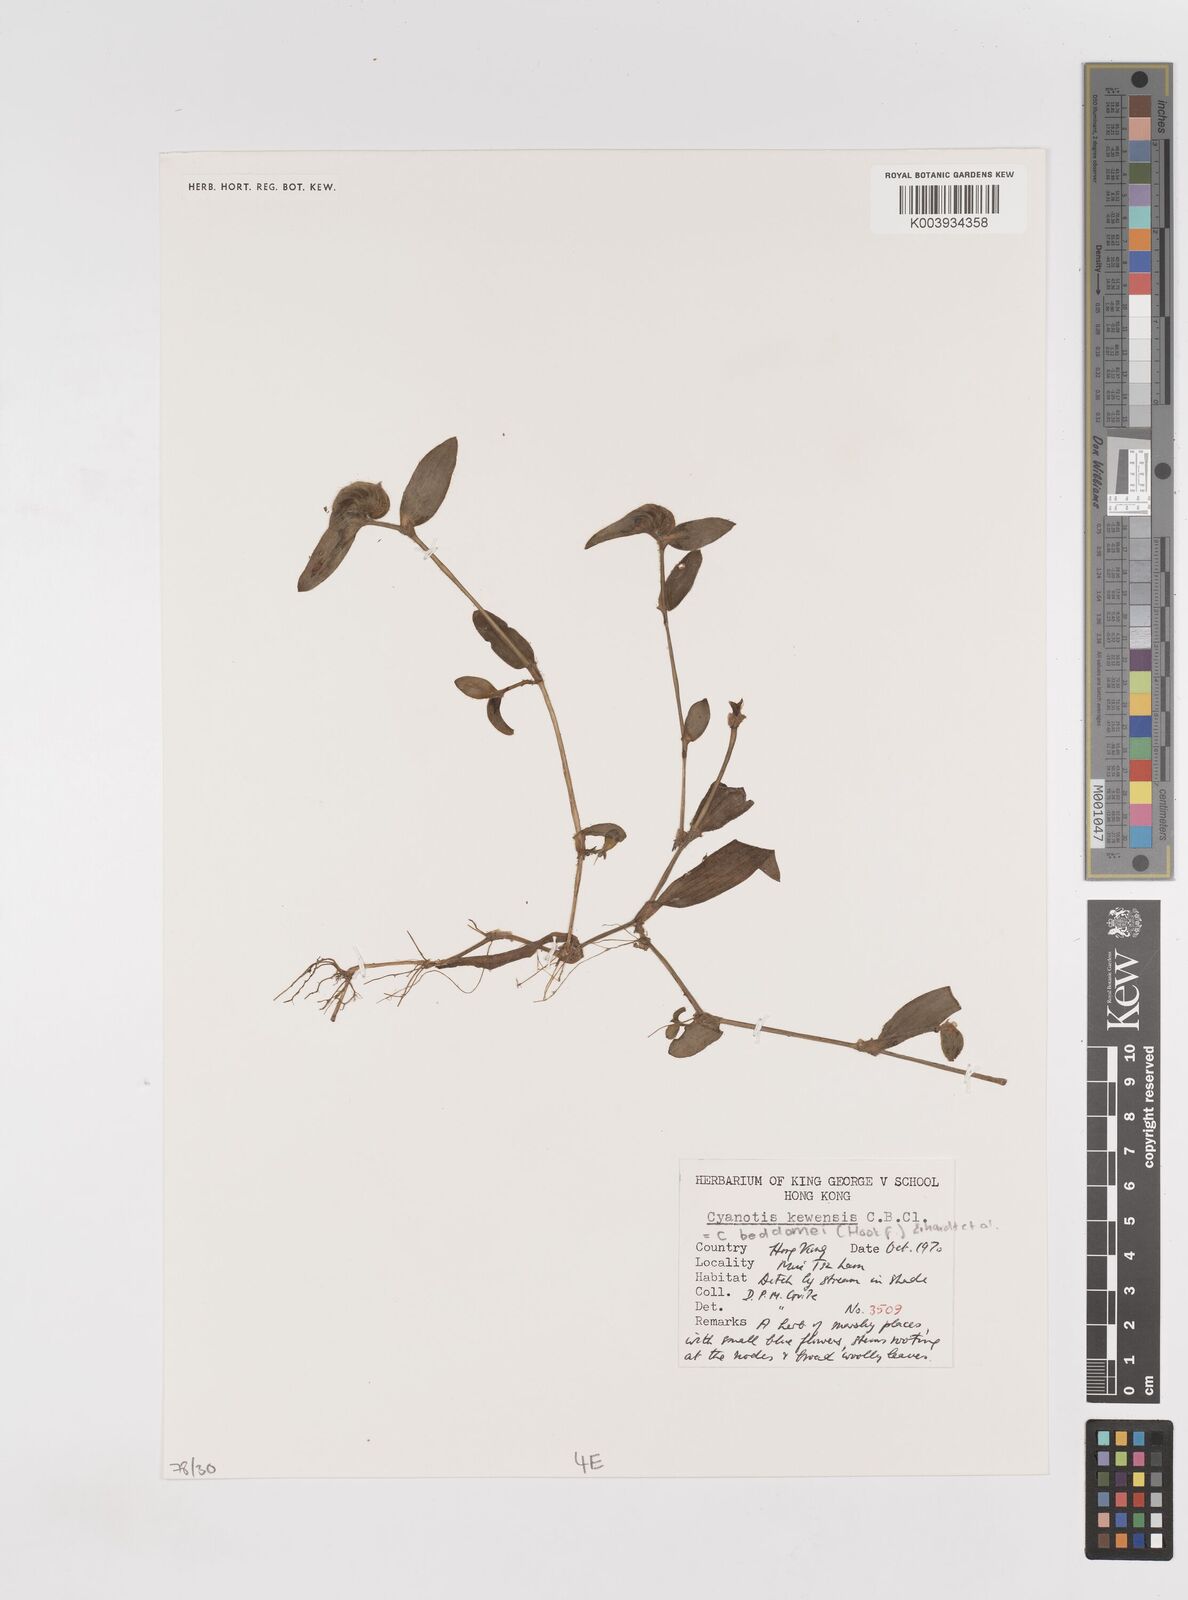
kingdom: Plantae
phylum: Tracheophyta
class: Liliopsida
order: Commelinales
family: Commelinaceae
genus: Cyanotis
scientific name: Cyanotis beddomei
